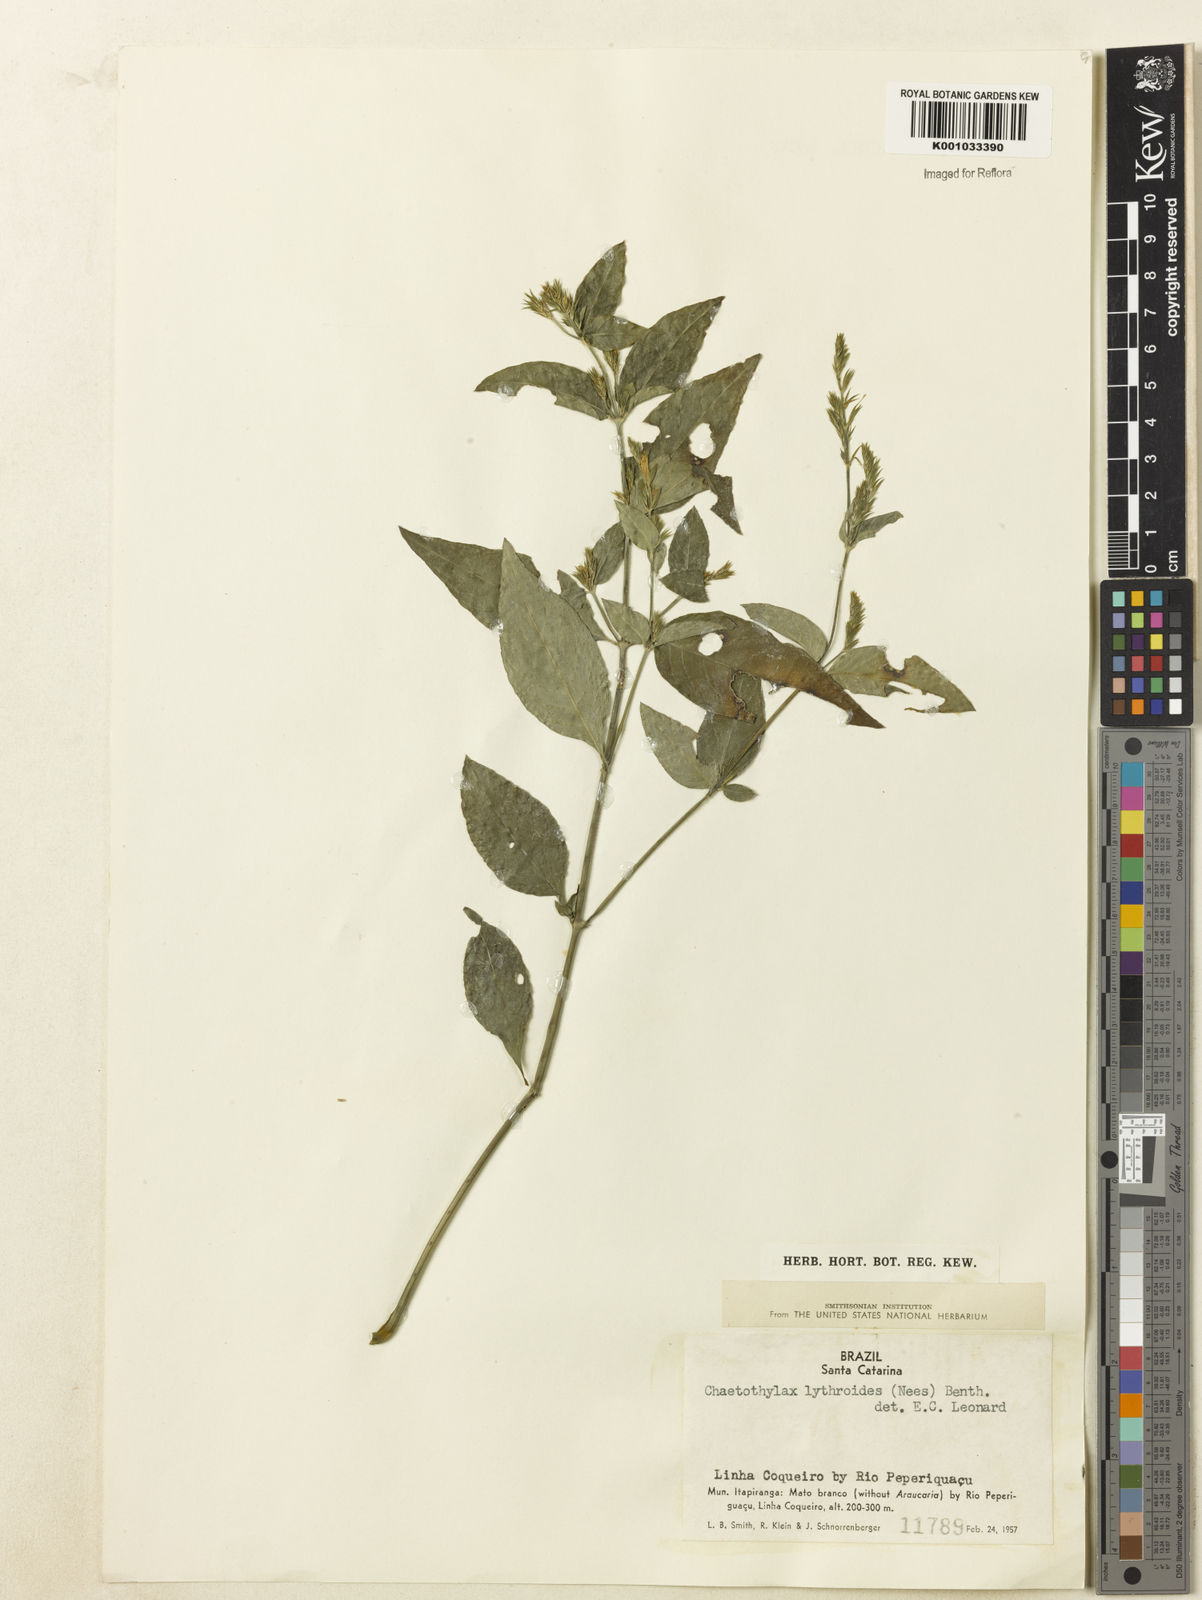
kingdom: Plantae
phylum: Tracheophyta
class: Magnoliopsida
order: Lamiales
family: Acanthaceae
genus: Justicia
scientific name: Justicia lythroides
